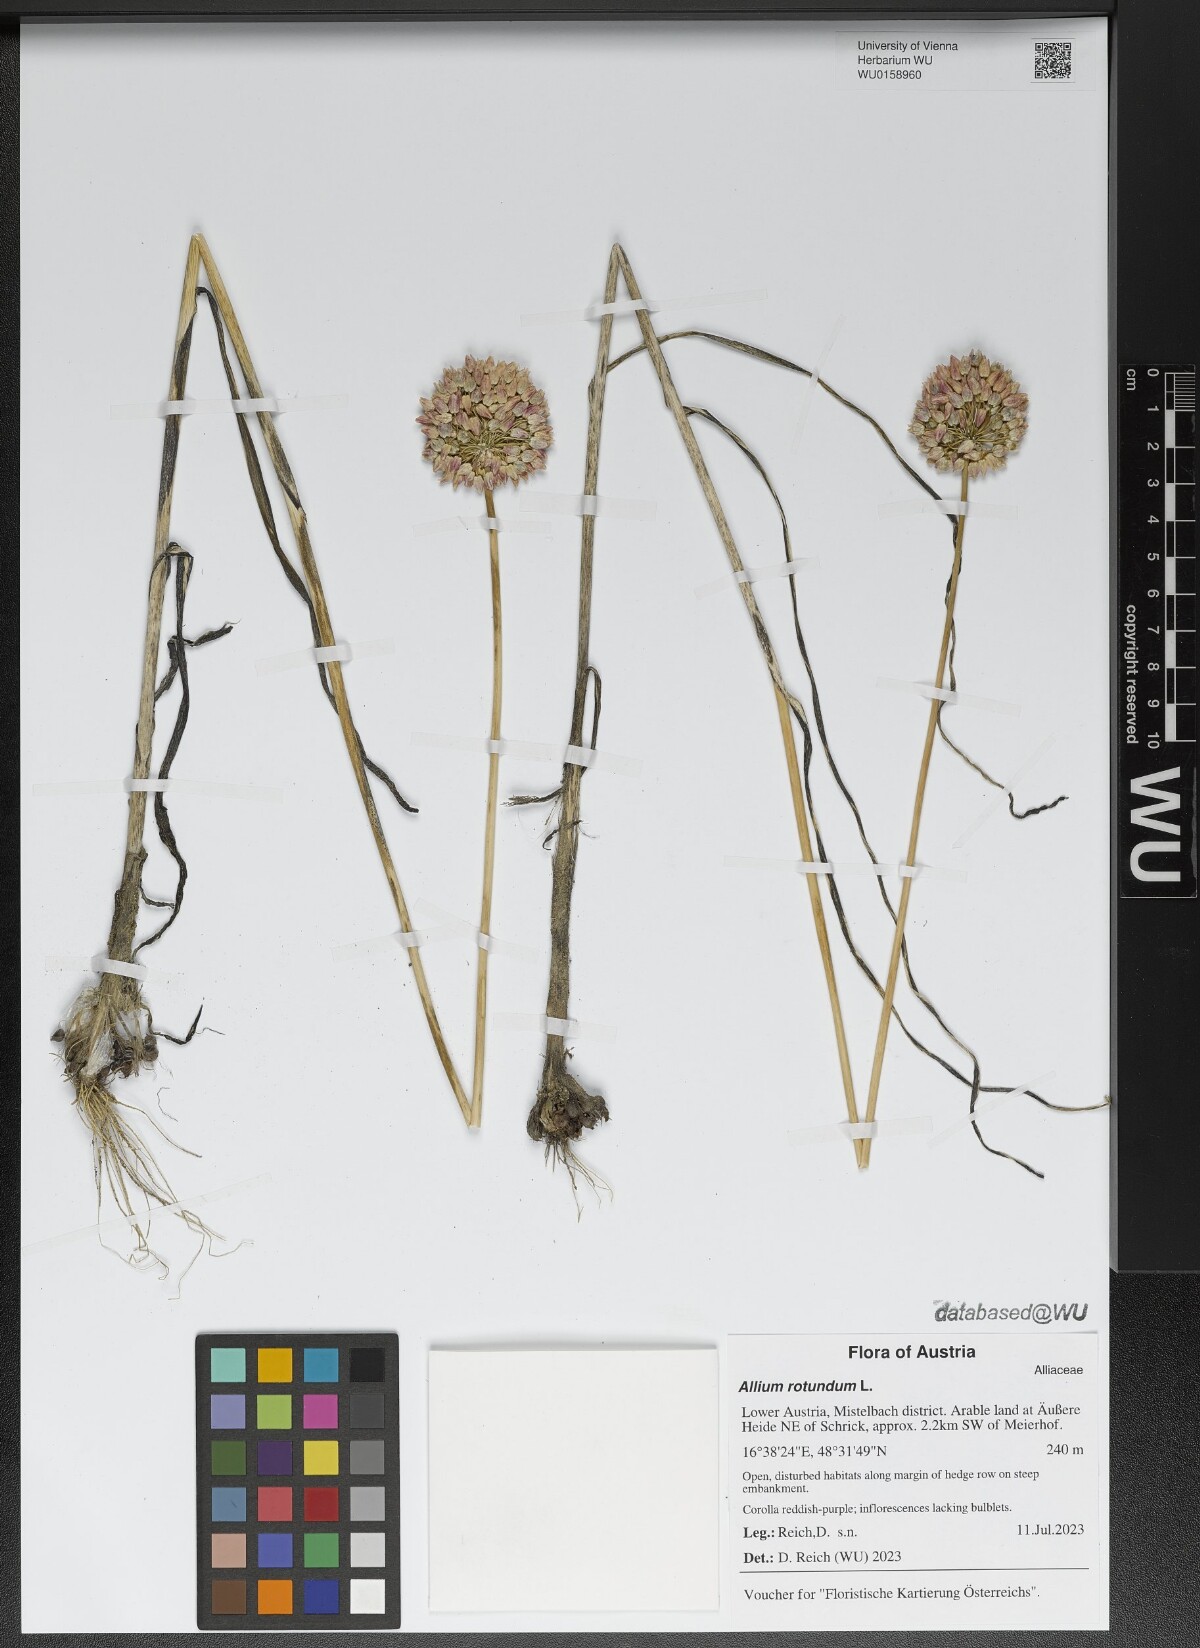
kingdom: Plantae
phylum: Tracheophyta
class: Liliopsida
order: Asparagales
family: Amaryllidaceae
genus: Allium
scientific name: Allium rotundum
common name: Sand leek
